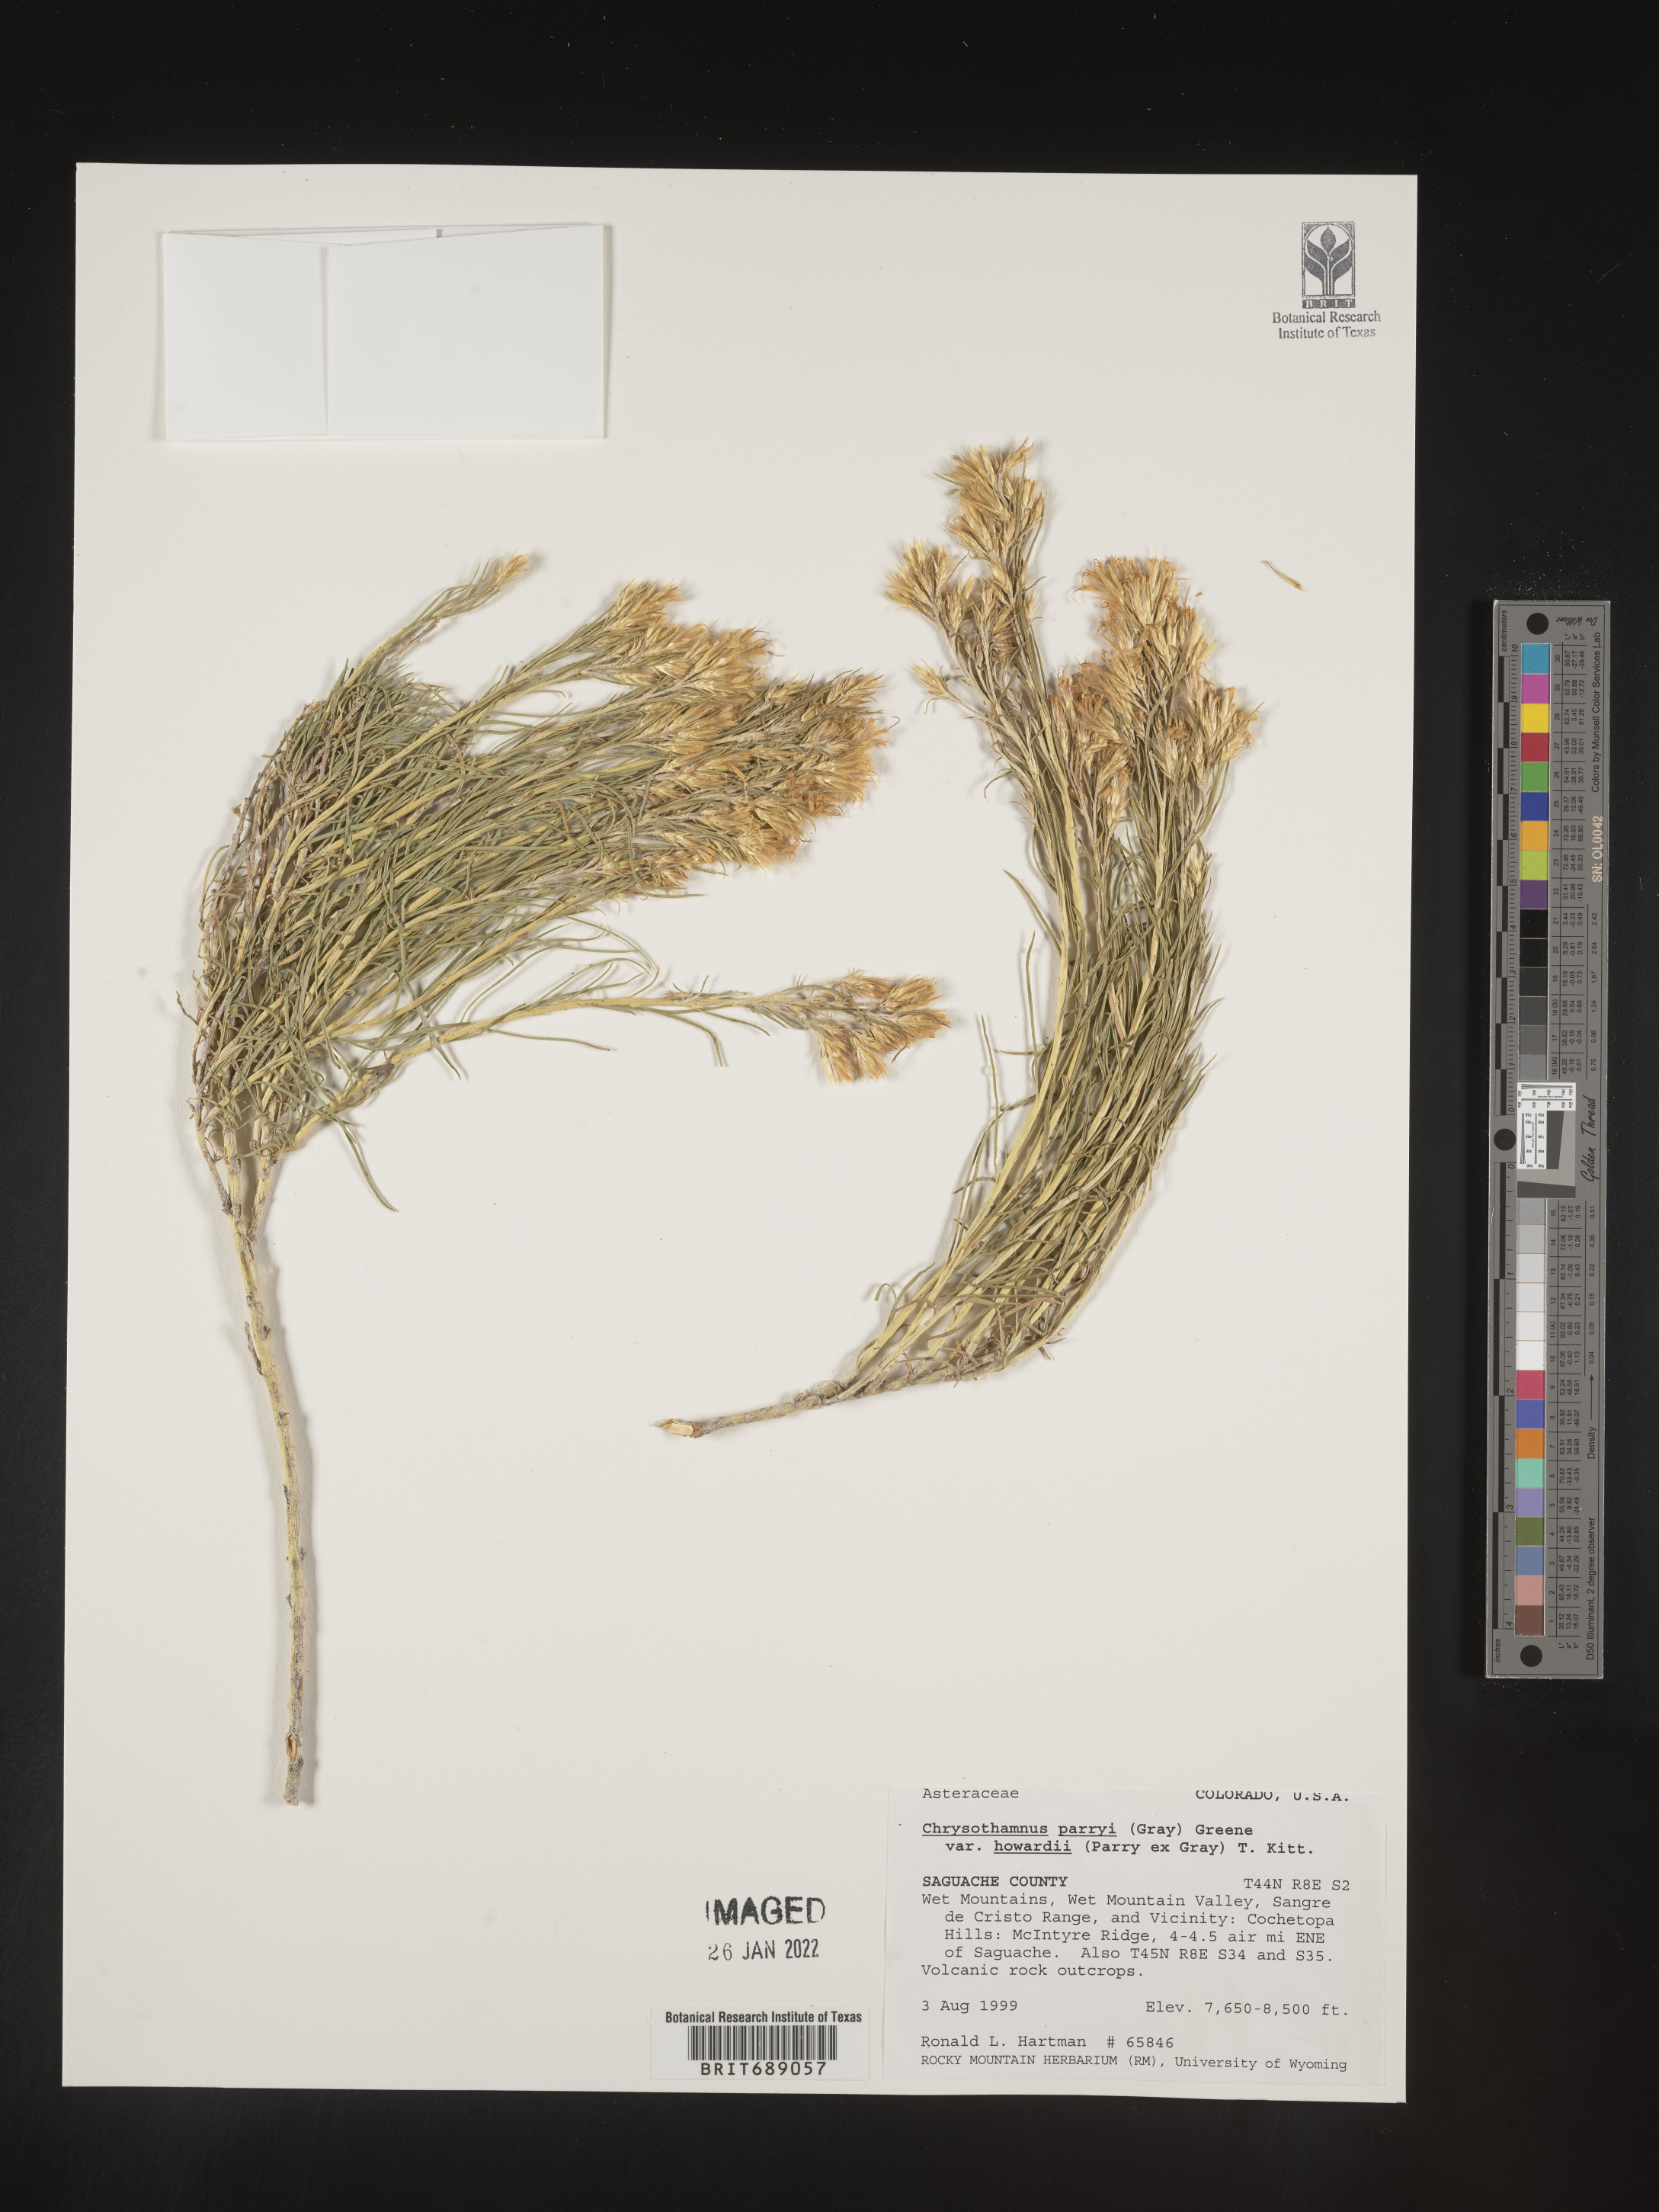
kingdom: Plantae
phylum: Tracheophyta
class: Magnoliopsida
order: Asterales
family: Asteraceae
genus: Chrysothamnus
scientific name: Chrysothamnus
